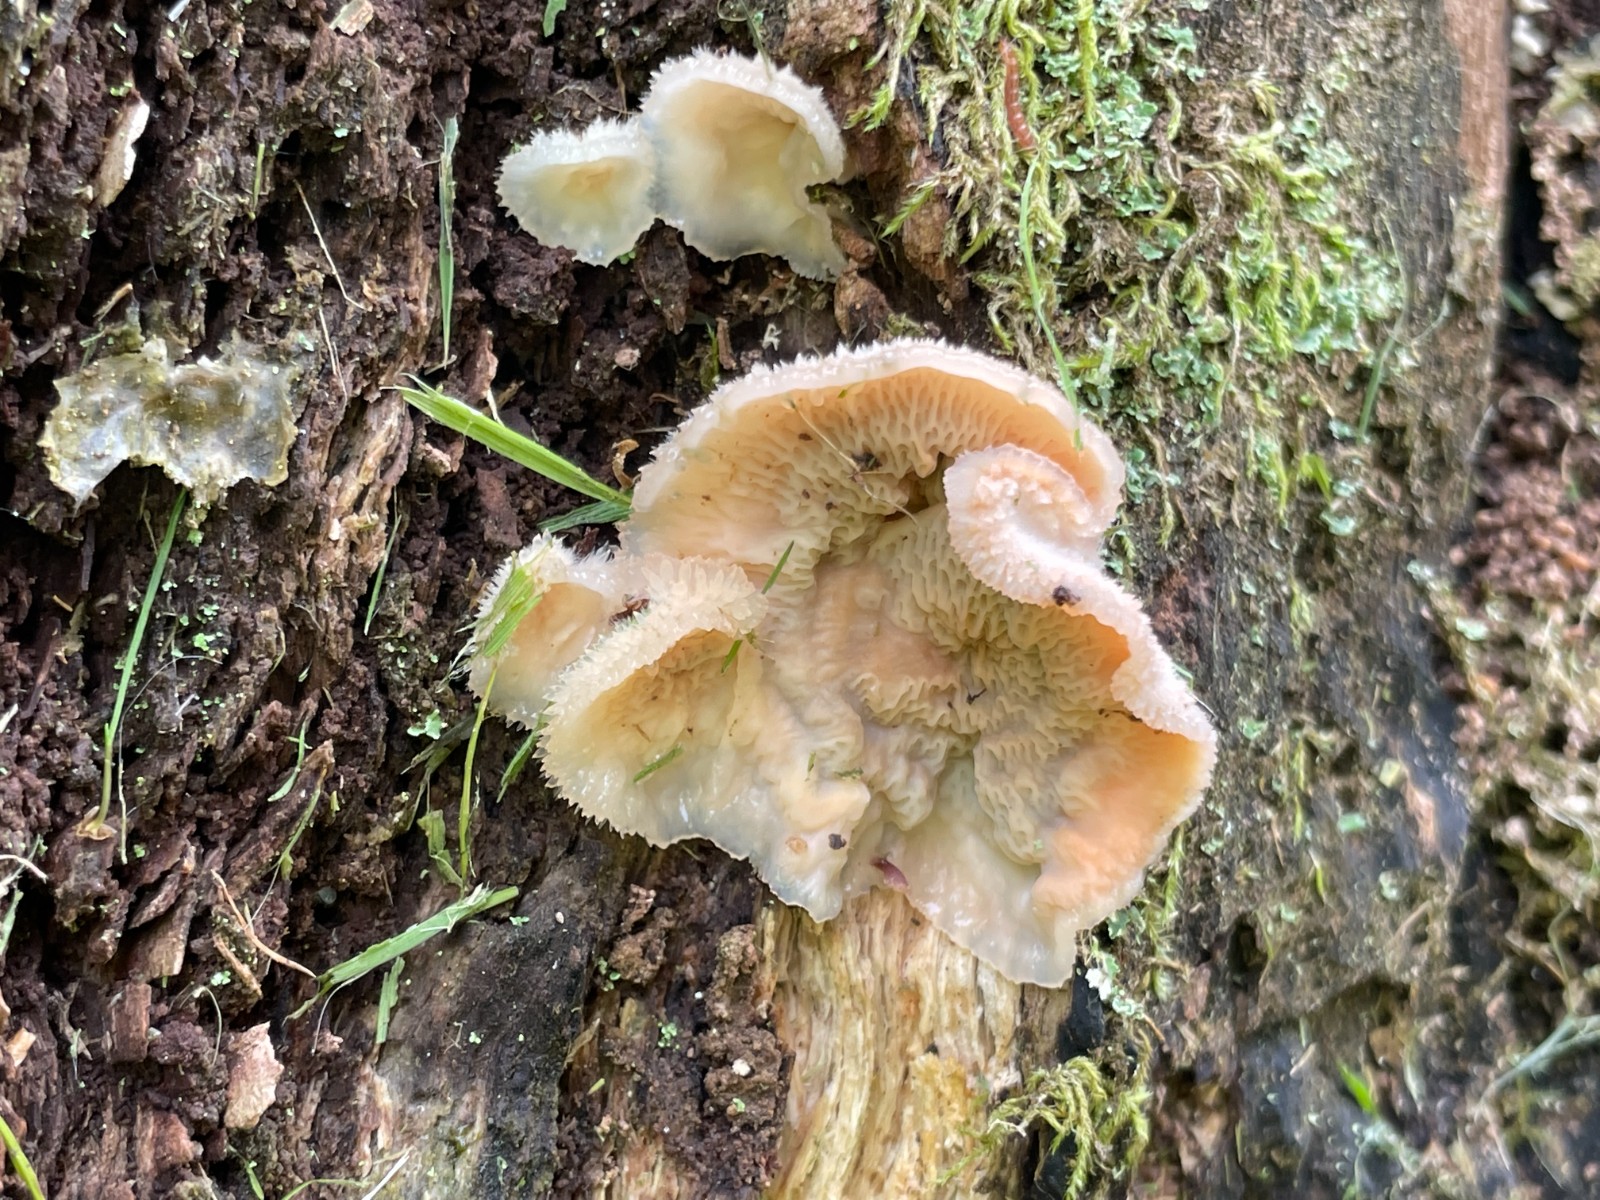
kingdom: Fungi
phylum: Basidiomycota
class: Agaricomycetes
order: Polyporales
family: Meruliaceae
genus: Phlebia
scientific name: Phlebia tremellosa
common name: bævrende åresvamp
